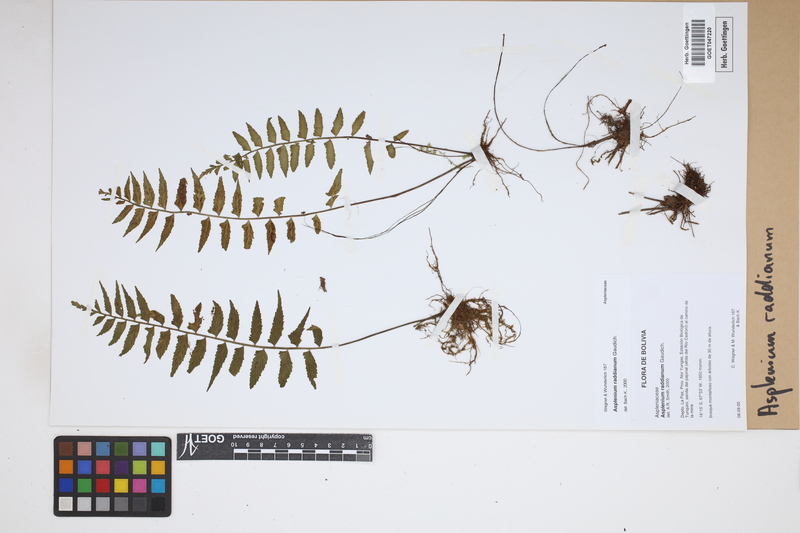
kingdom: Plantae
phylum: Tracheophyta
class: Polypodiopsida
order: Polypodiales
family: Aspleniaceae
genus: Asplenium
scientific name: Asplenium raddianum
